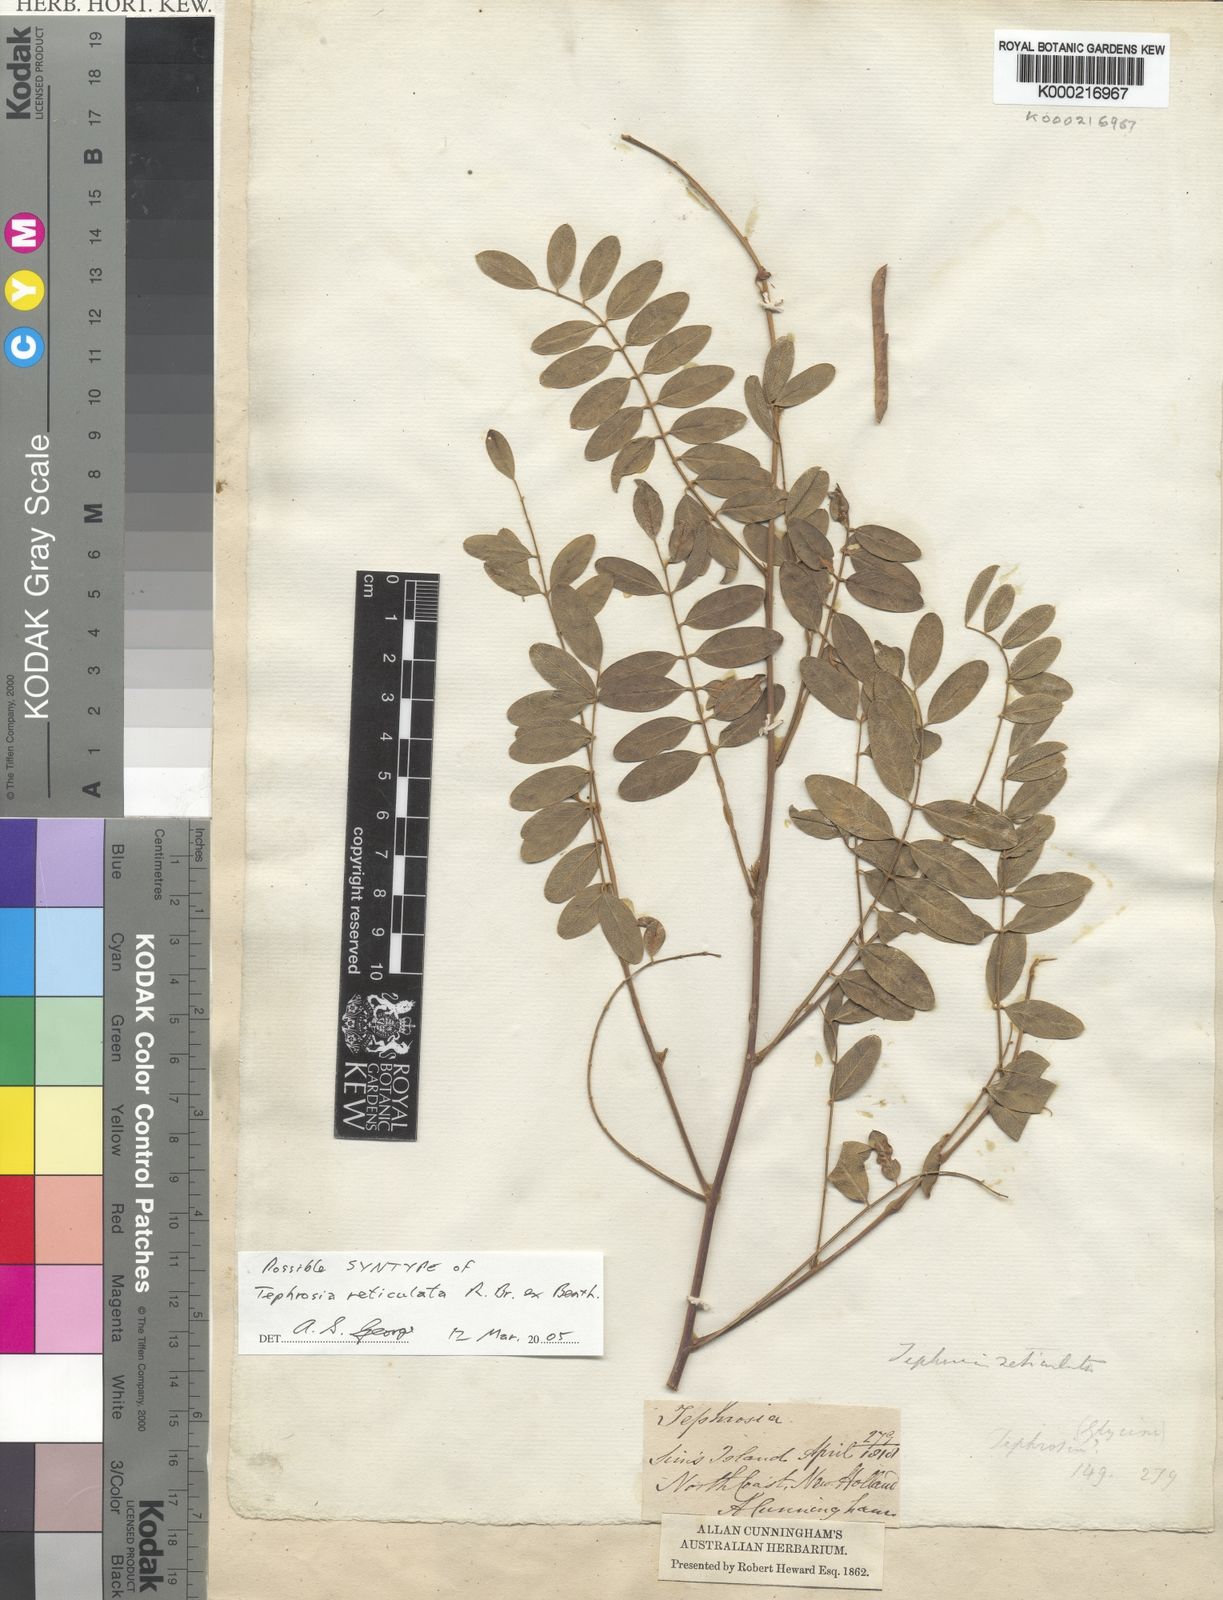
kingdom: Plantae
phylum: Tracheophyta
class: Magnoliopsida
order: Fabales
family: Fabaceae
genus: Tephrosia
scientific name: Tephrosia reticulata
